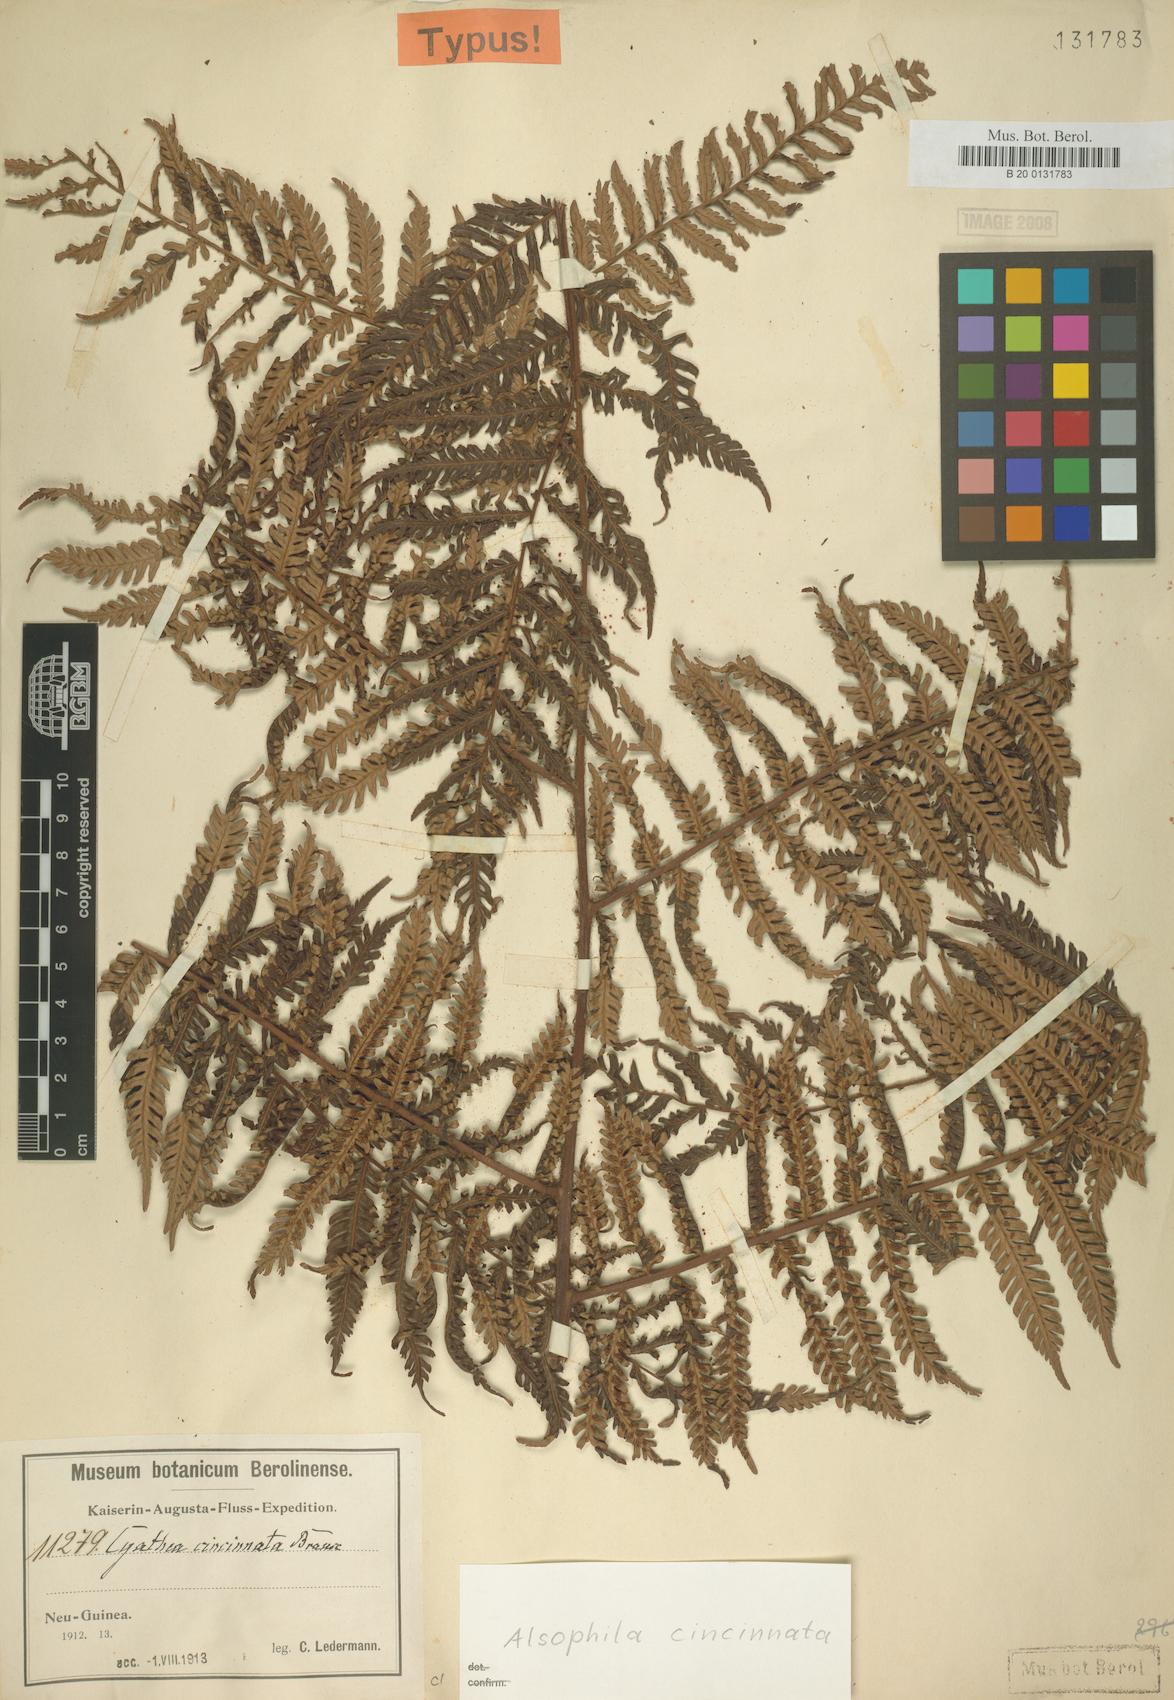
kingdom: Plantae
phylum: Tracheophyta
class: Polypodiopsida
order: Cyatheales
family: Cyatheaceae
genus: Alsophila
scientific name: Alsophila cincinnata
